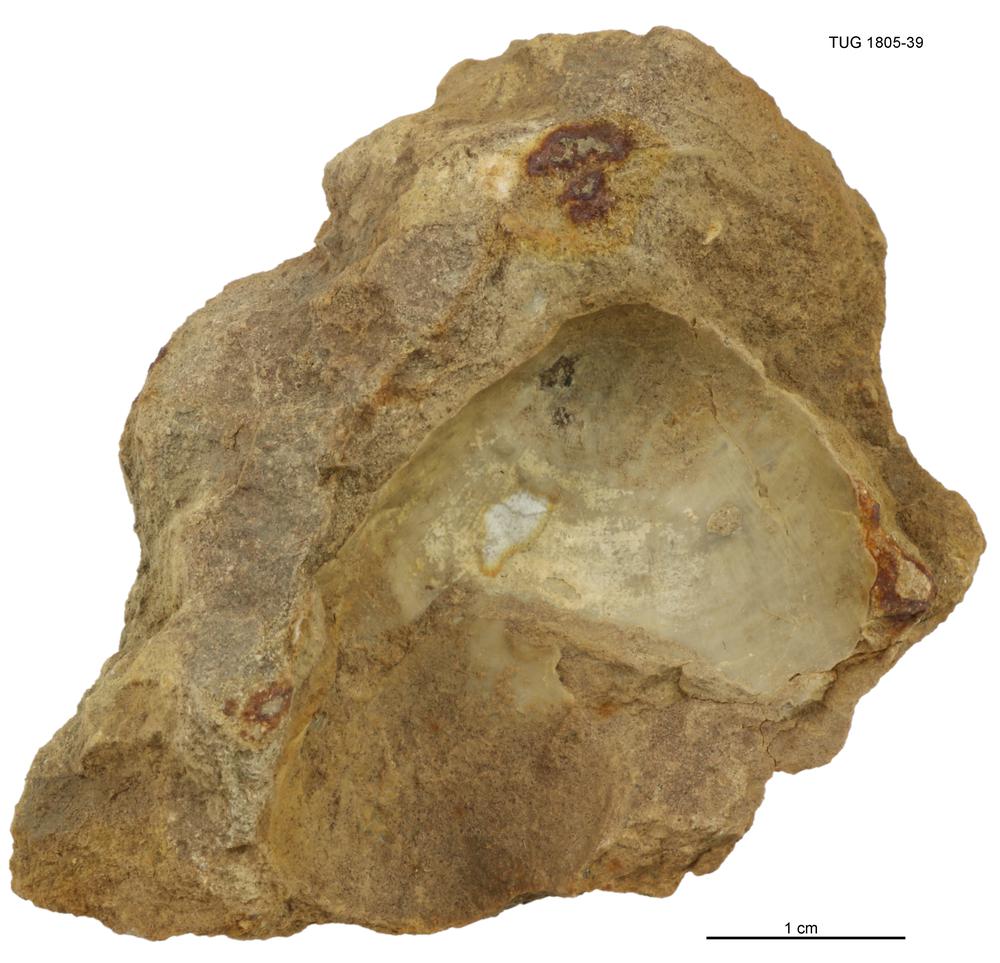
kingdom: Animalia
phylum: Mollusca
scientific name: Mollusca
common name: Mollusca
